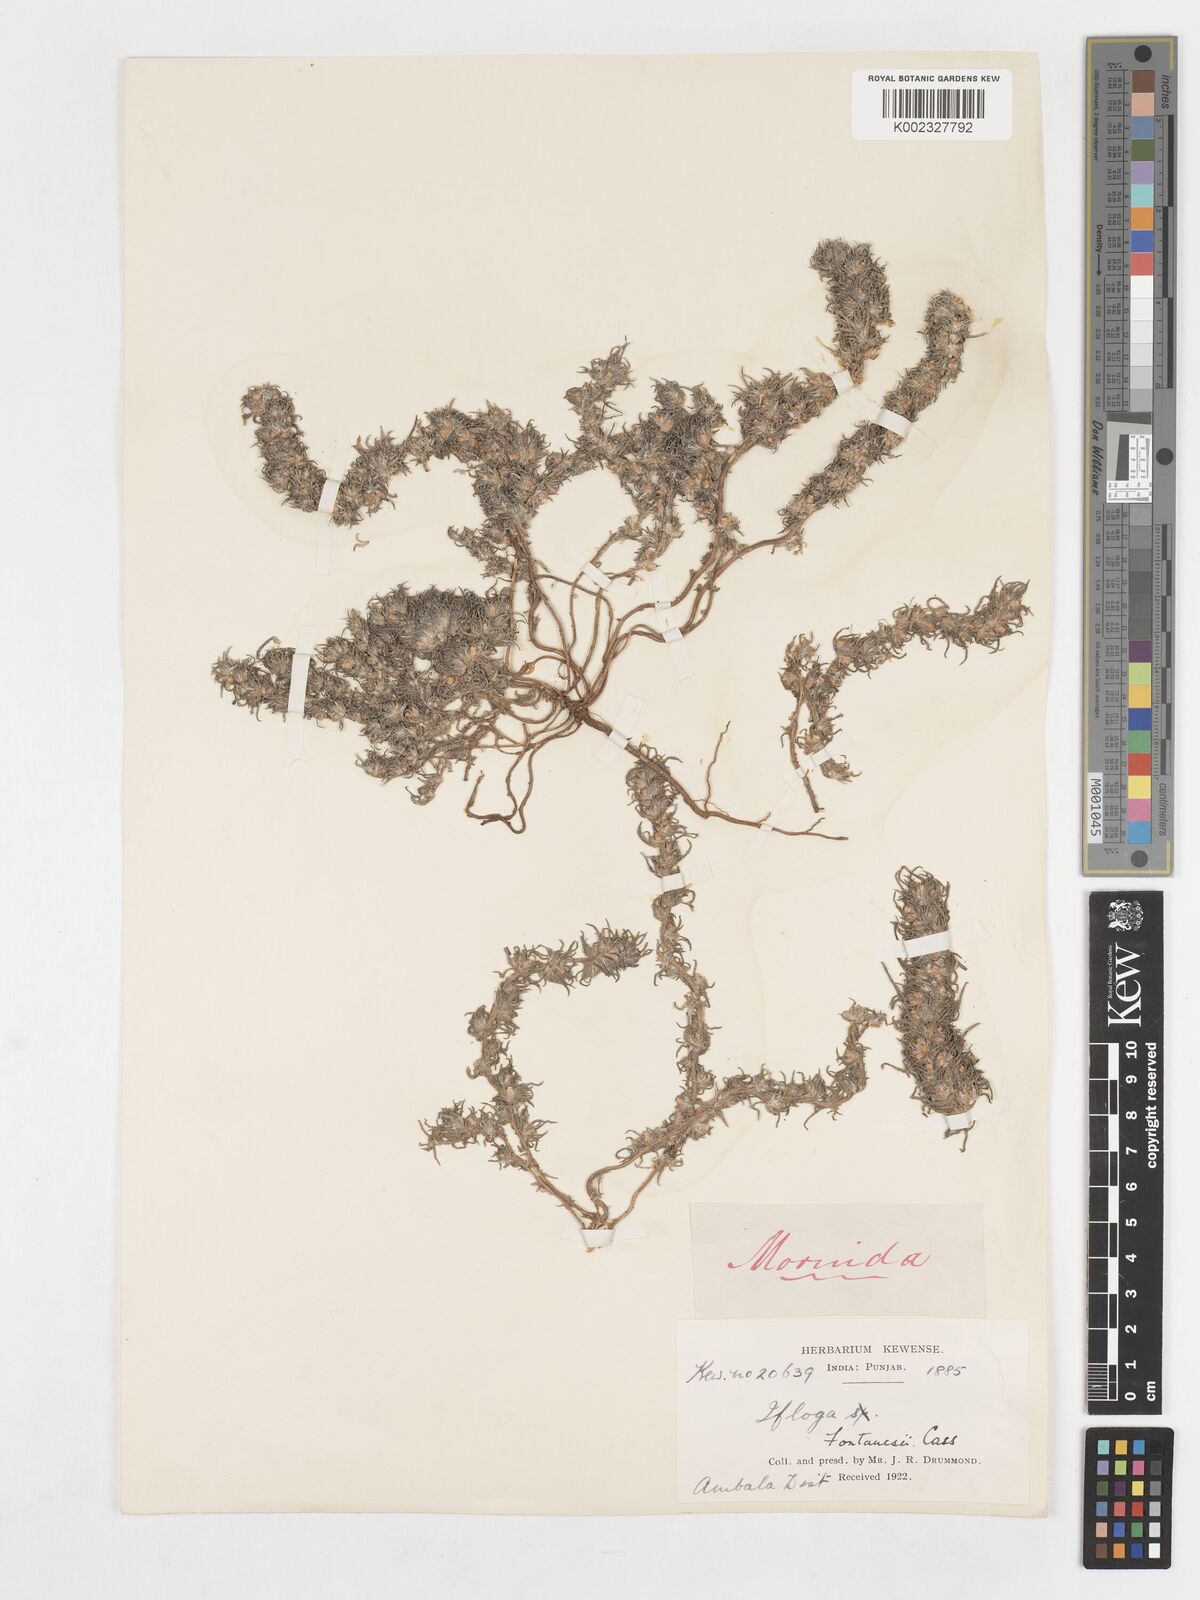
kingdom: Plantae
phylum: Tracheophyta
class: Magnoliopsida
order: Asterales
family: Asteraceae
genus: Ifloga
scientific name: Ifloga spicata
